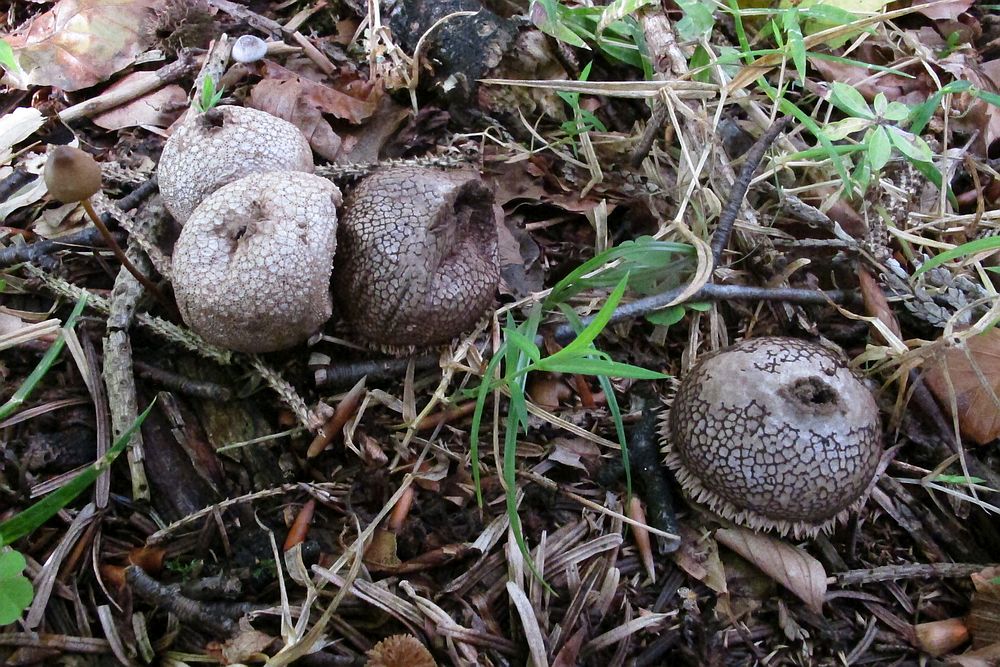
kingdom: Fungi
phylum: Basidiomycota
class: Agaricomycetes
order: Agaricales
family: Lycoperdaceae
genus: Lycoperdon
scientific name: Lycoperdon echinatum
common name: pindsvine-støvbold
